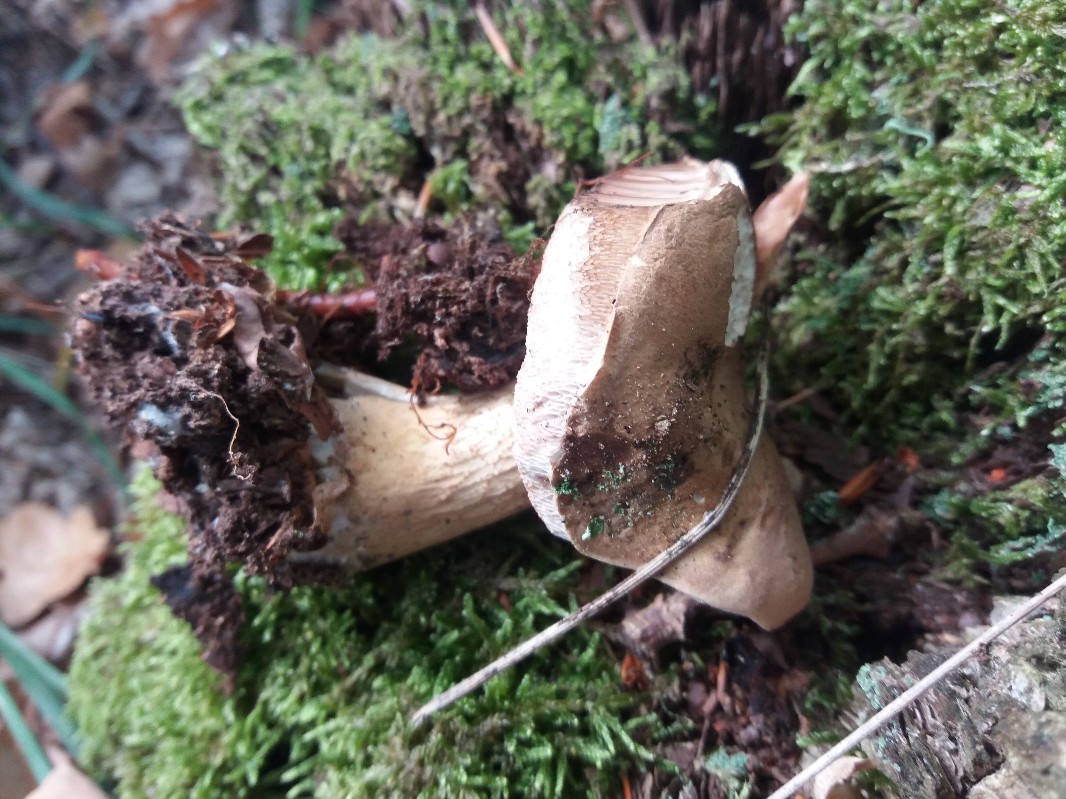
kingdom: Fungi
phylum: Basidiomycota
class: Agaricomycetes
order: Boletales
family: Boletaceae
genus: Tylopilus
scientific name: Tylopilus felleus
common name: galderørhat
